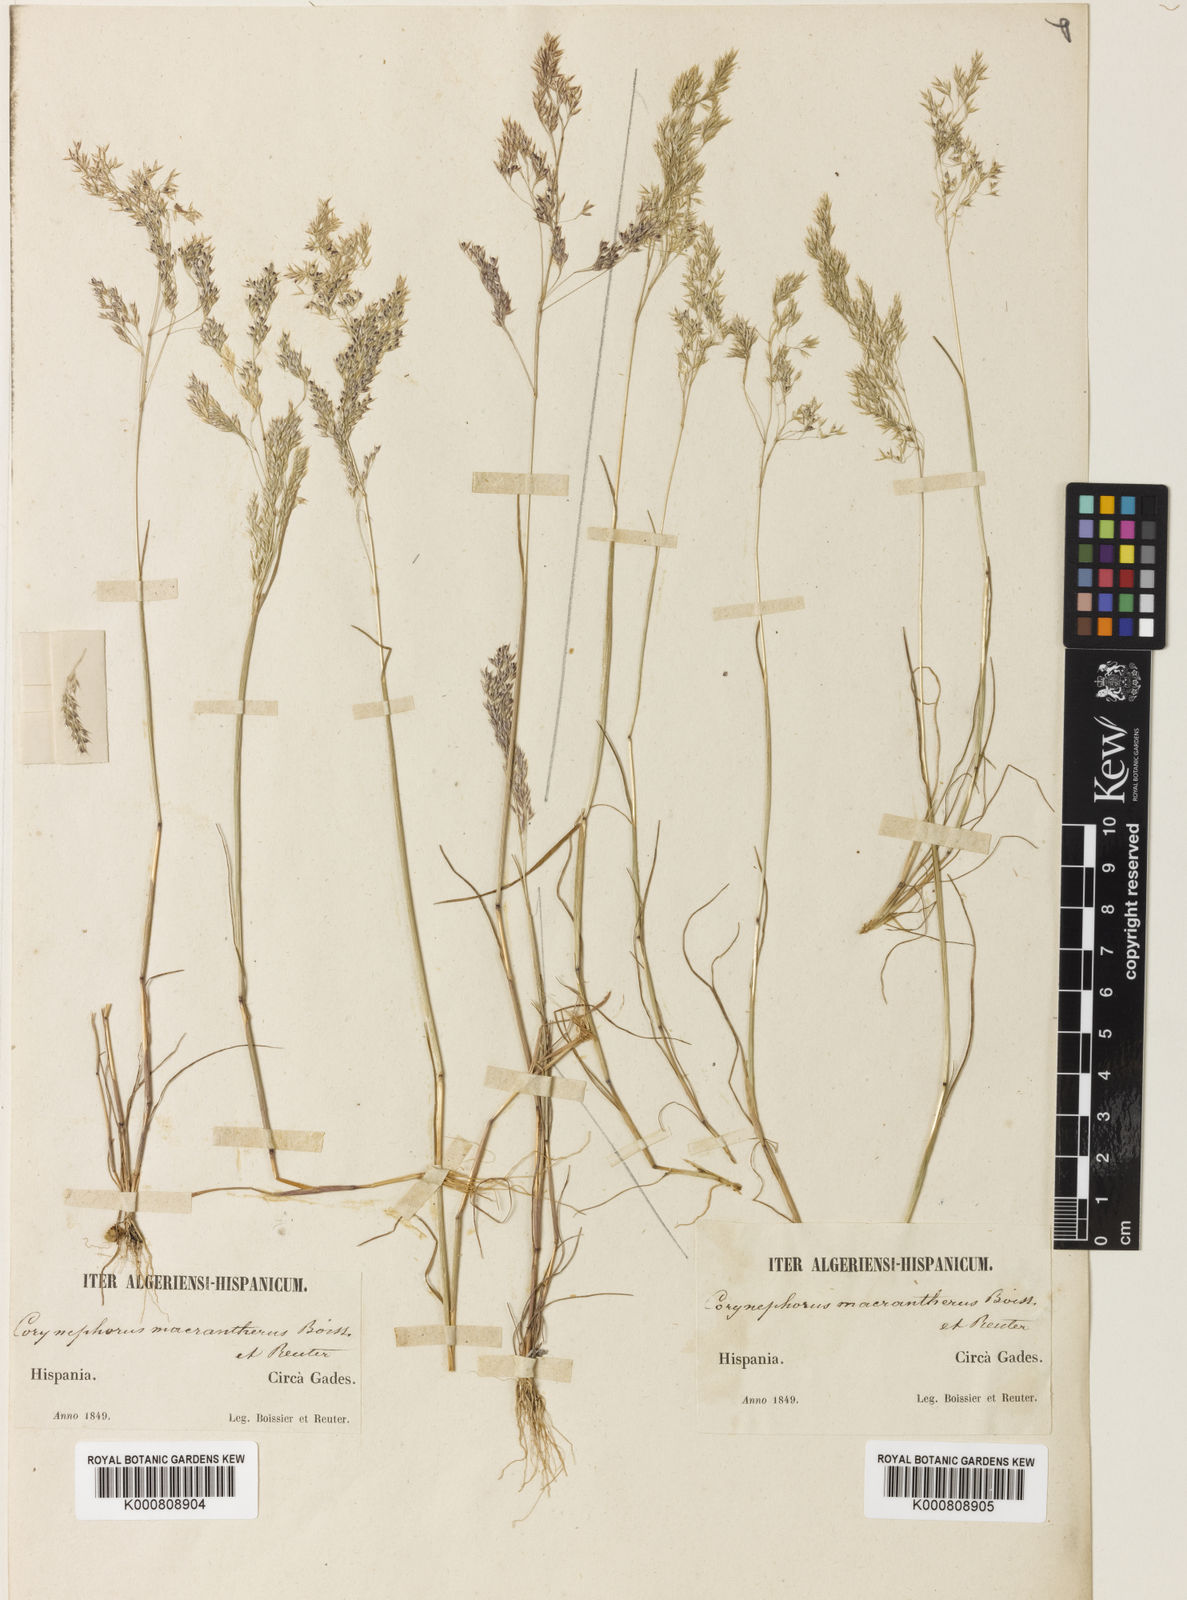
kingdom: Plantae
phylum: Tracheophyta
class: Liliopsida
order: Poales
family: Poaceae
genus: Corynephorus
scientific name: Corynephorus macrantherus
